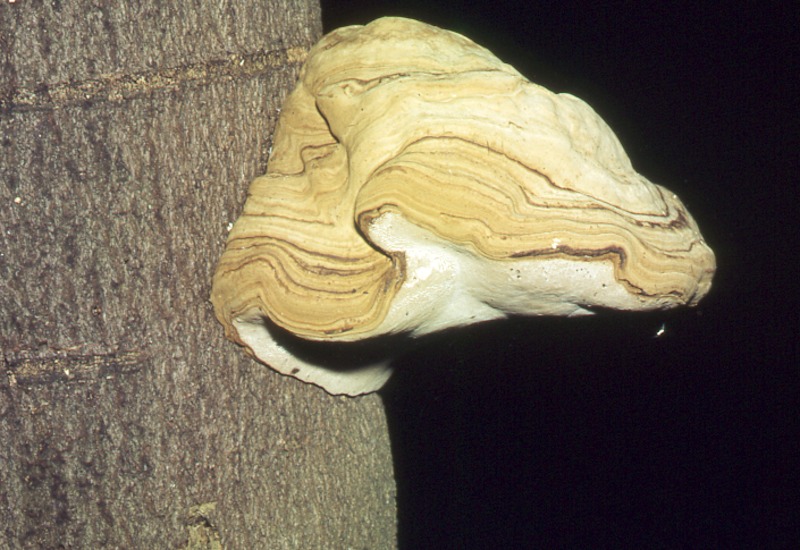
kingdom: Plantae
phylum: Tracheophyta
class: Magnoliopsida
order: Malpighiales
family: Salicaceae
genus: Populus
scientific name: Populus
